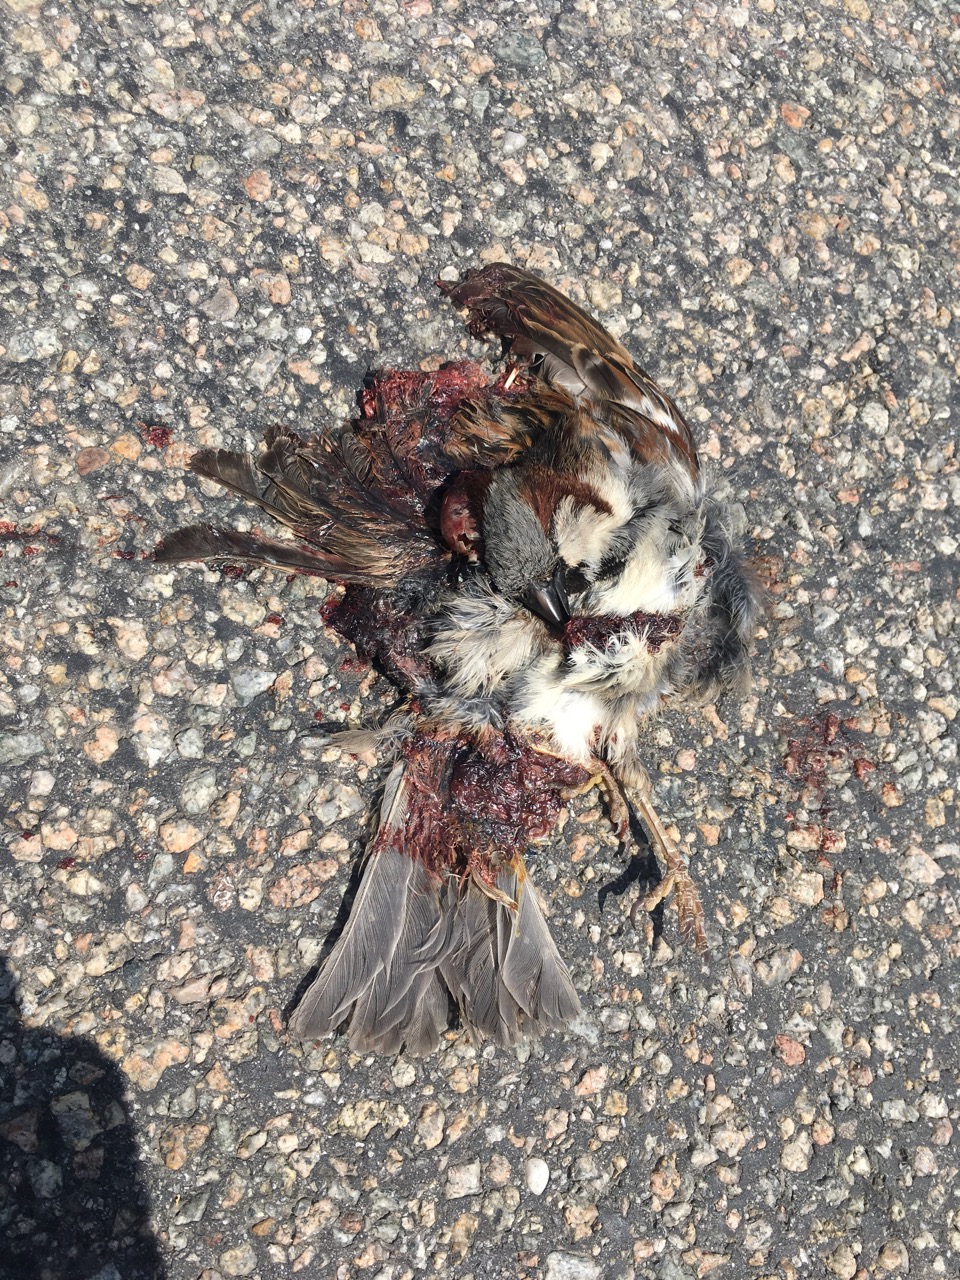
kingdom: Animalia
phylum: Chordata
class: Aves
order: Passeriformes
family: Passeridae
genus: Passer
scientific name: Passer domesticus
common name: House sparrow
